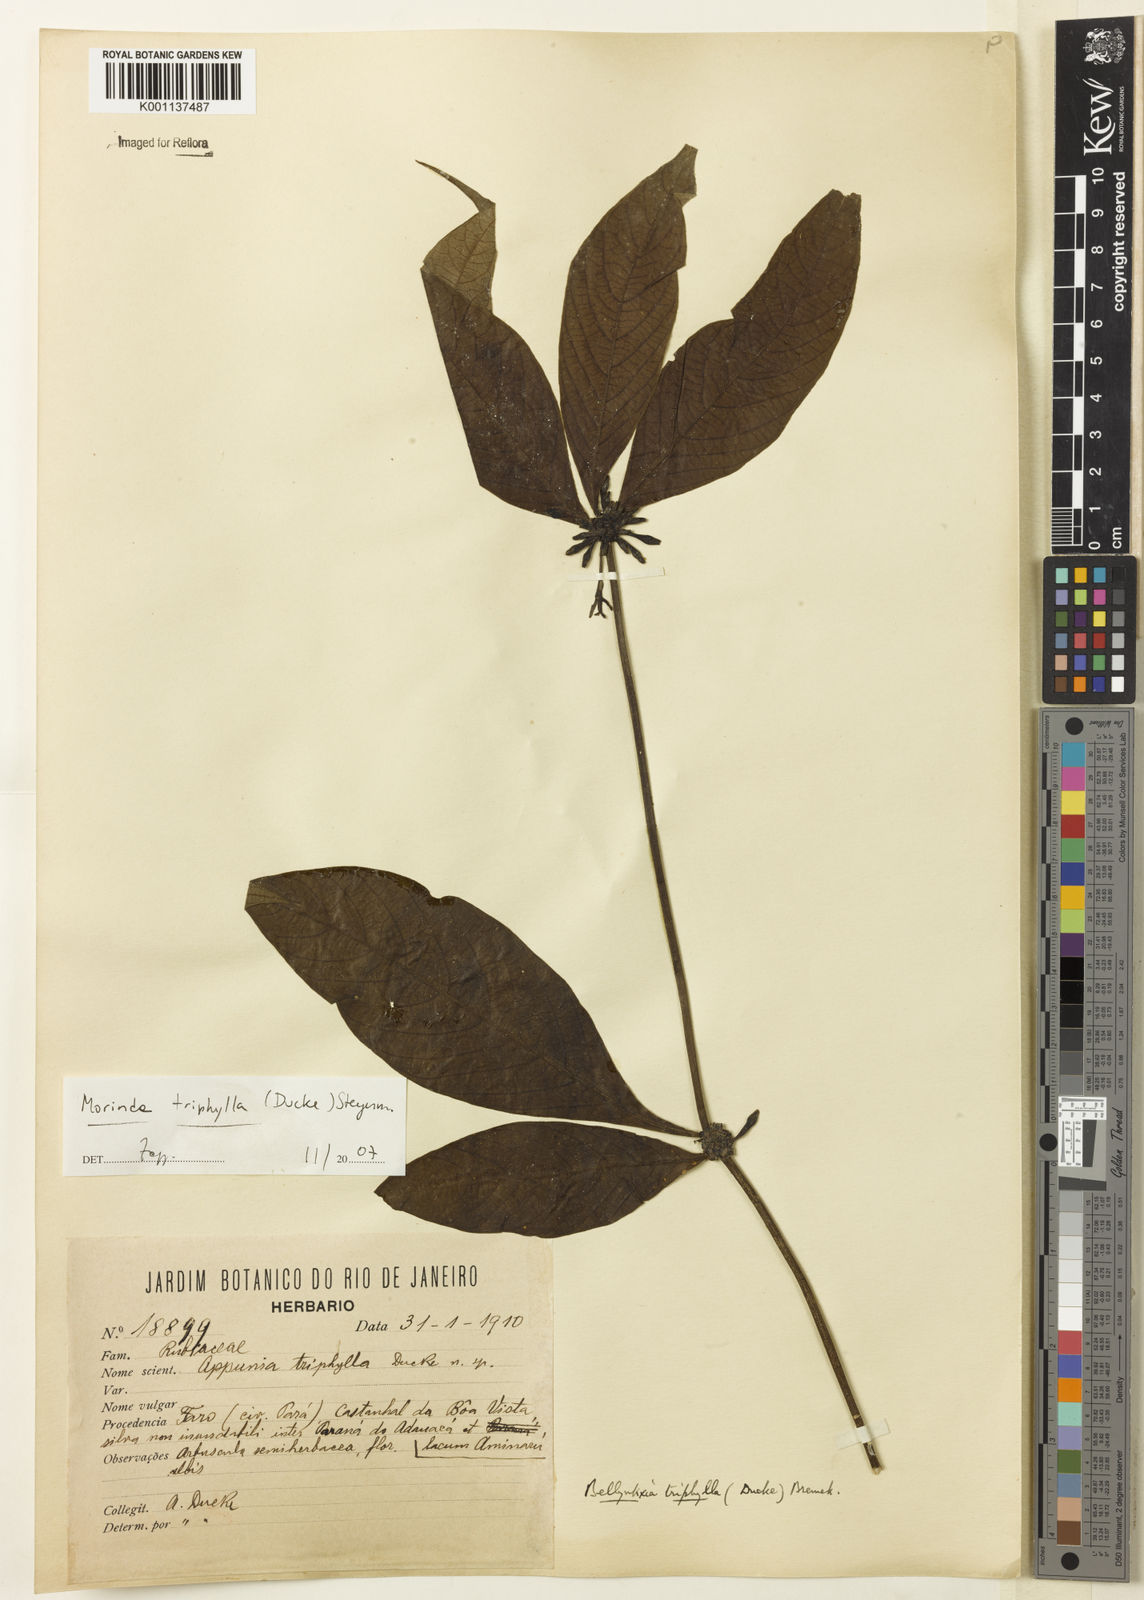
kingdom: Plantae
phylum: Tracheophyta
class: Magnoliopsida
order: Gentianales
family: Rubiaceae
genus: Appunia
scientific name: Appunia triphylla
